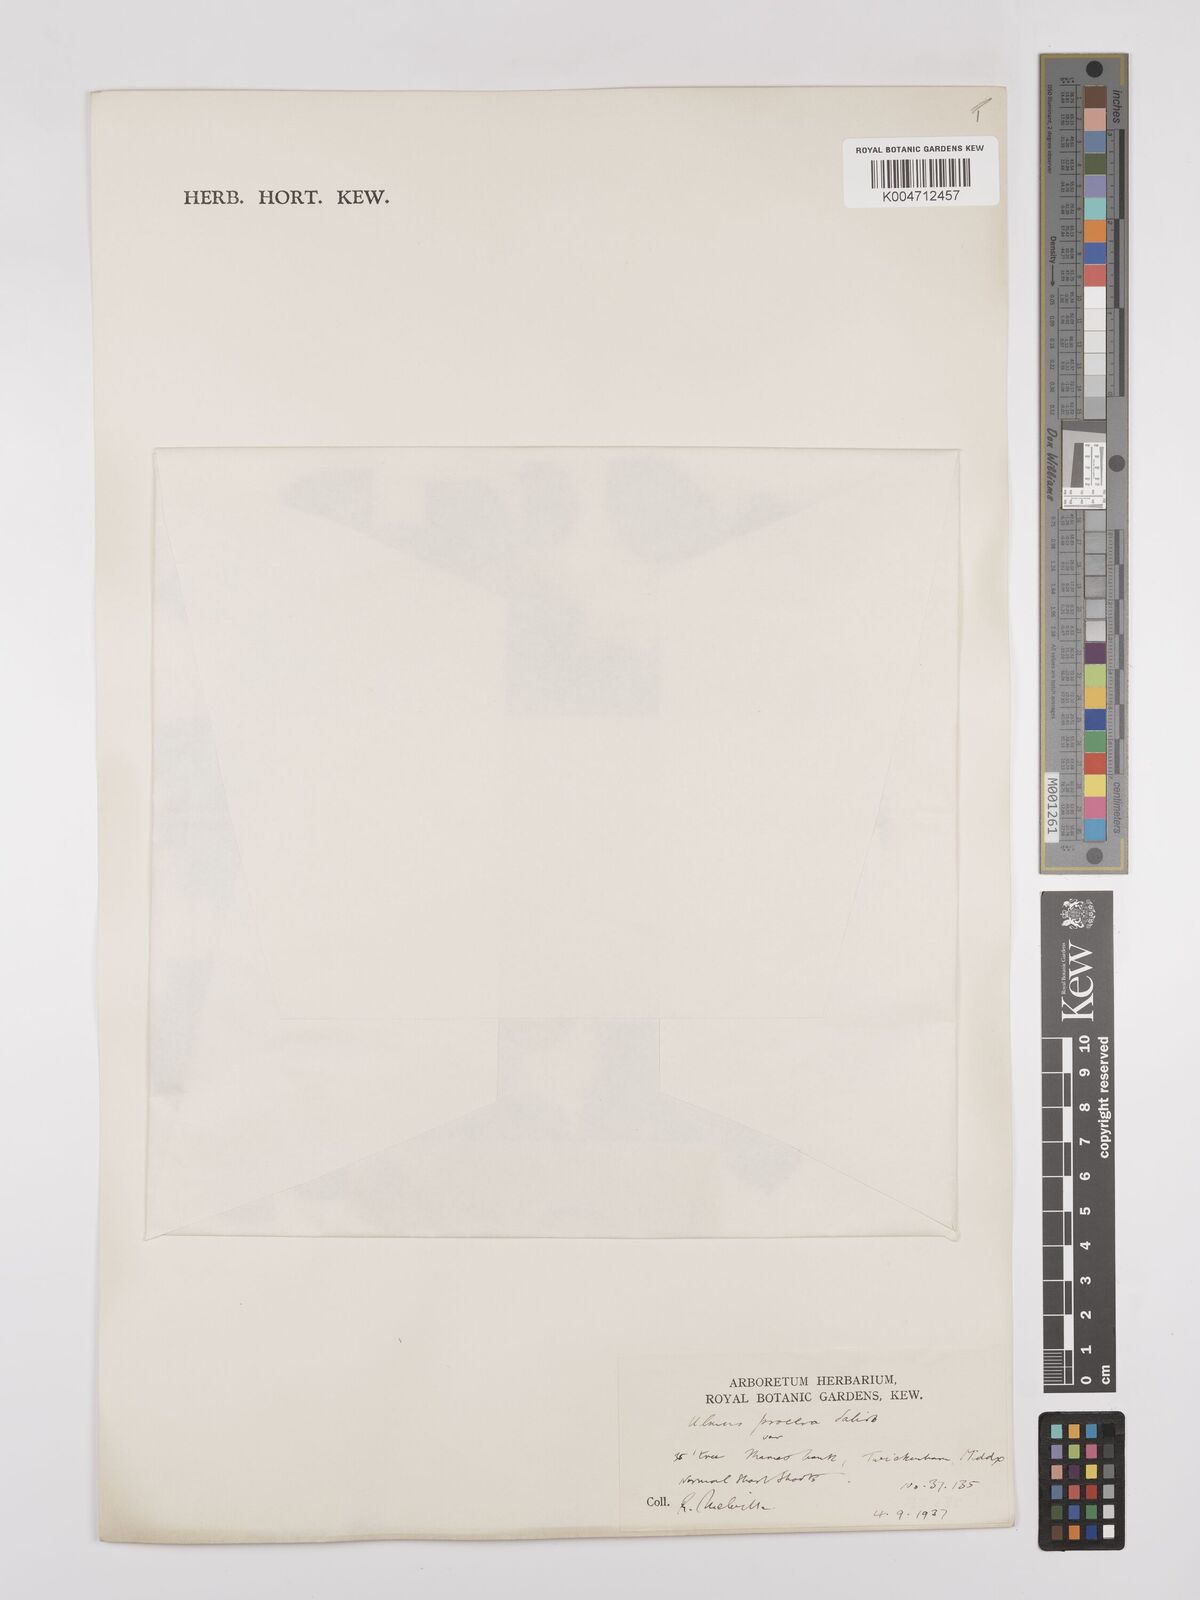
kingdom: Plantae
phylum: Tracheophyta
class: Magnoliopsida
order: Rosales
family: Ulmaceae
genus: Ulmus
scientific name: Ulmus minor
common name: Small-leaved elm
